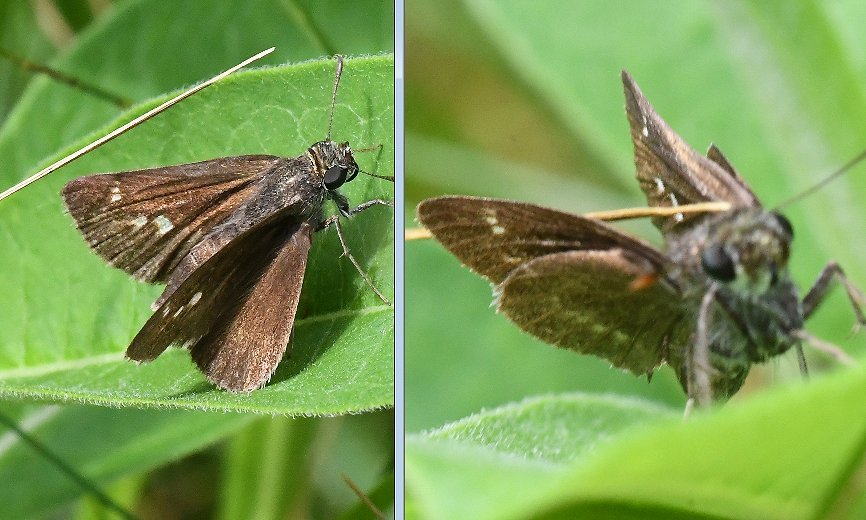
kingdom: Animalia
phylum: Arthropoda
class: Insecta
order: Lepidoptera
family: Hesperiidae
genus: Polites
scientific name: Polites egeremet
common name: Northern Broken-Dash
